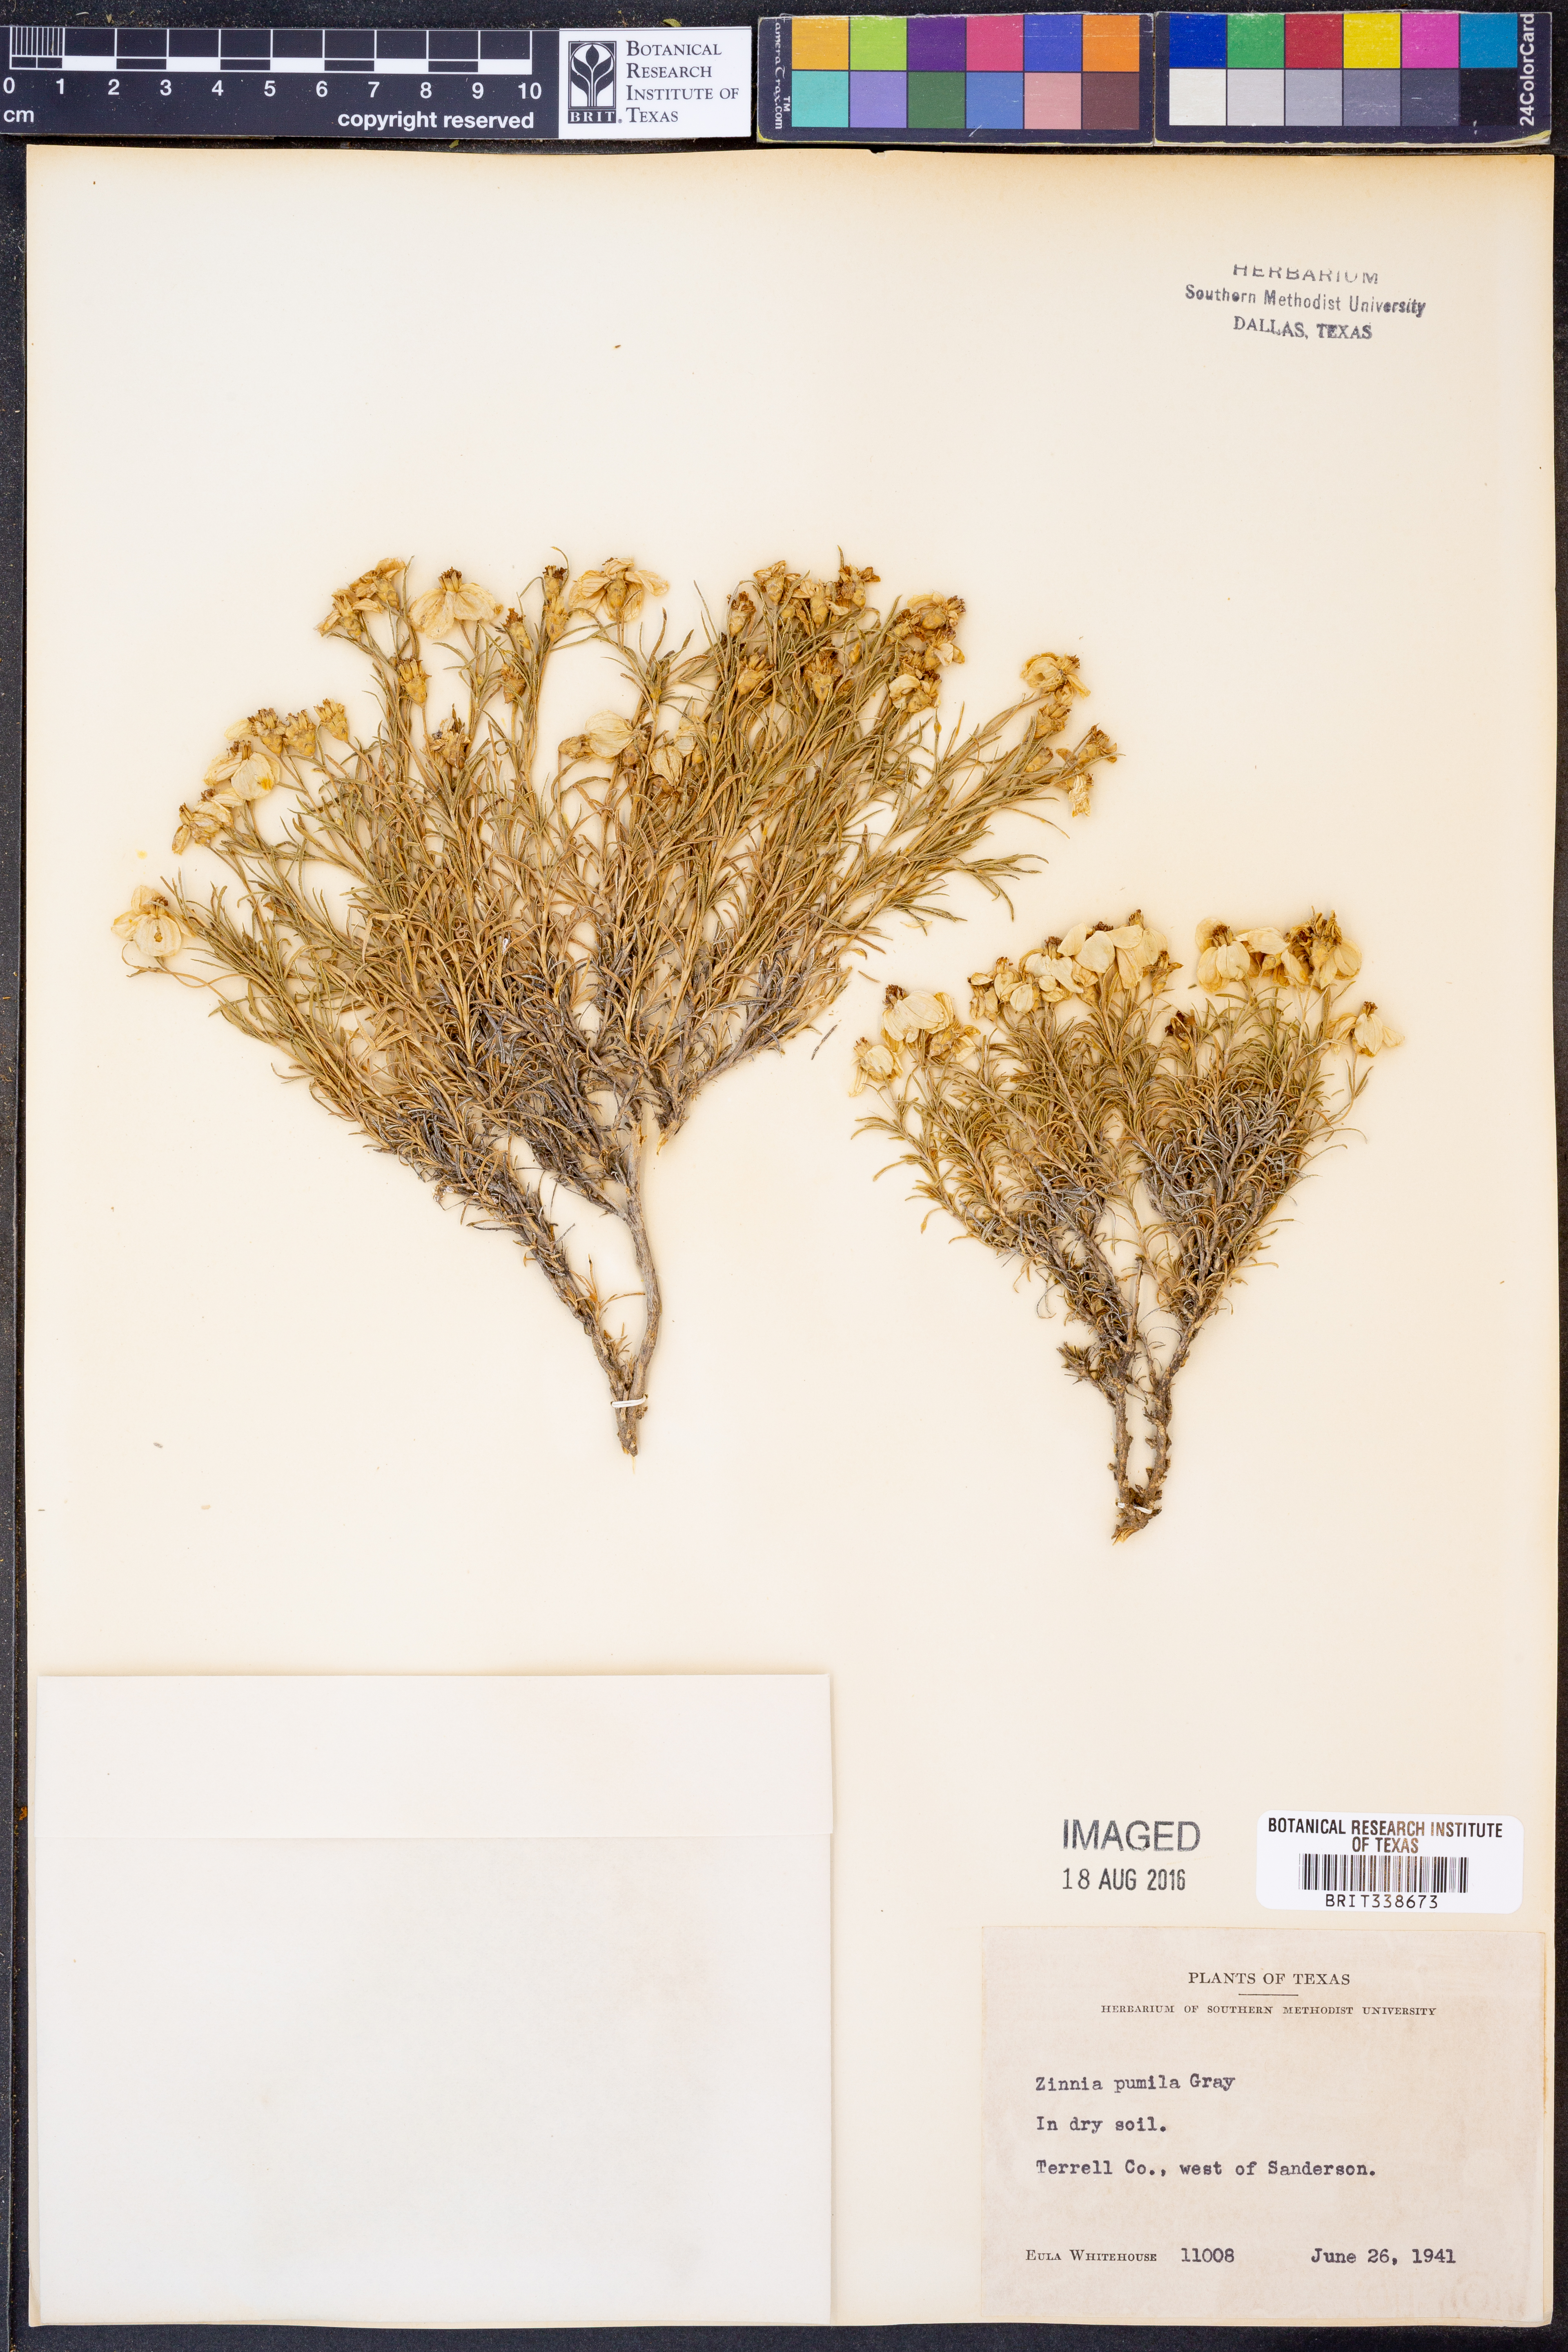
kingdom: Plantae
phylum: Tracheophyta
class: Magnoliopsida
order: Asterales
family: Asteraceae
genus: Zinnia
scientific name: Zinnia acerosa
